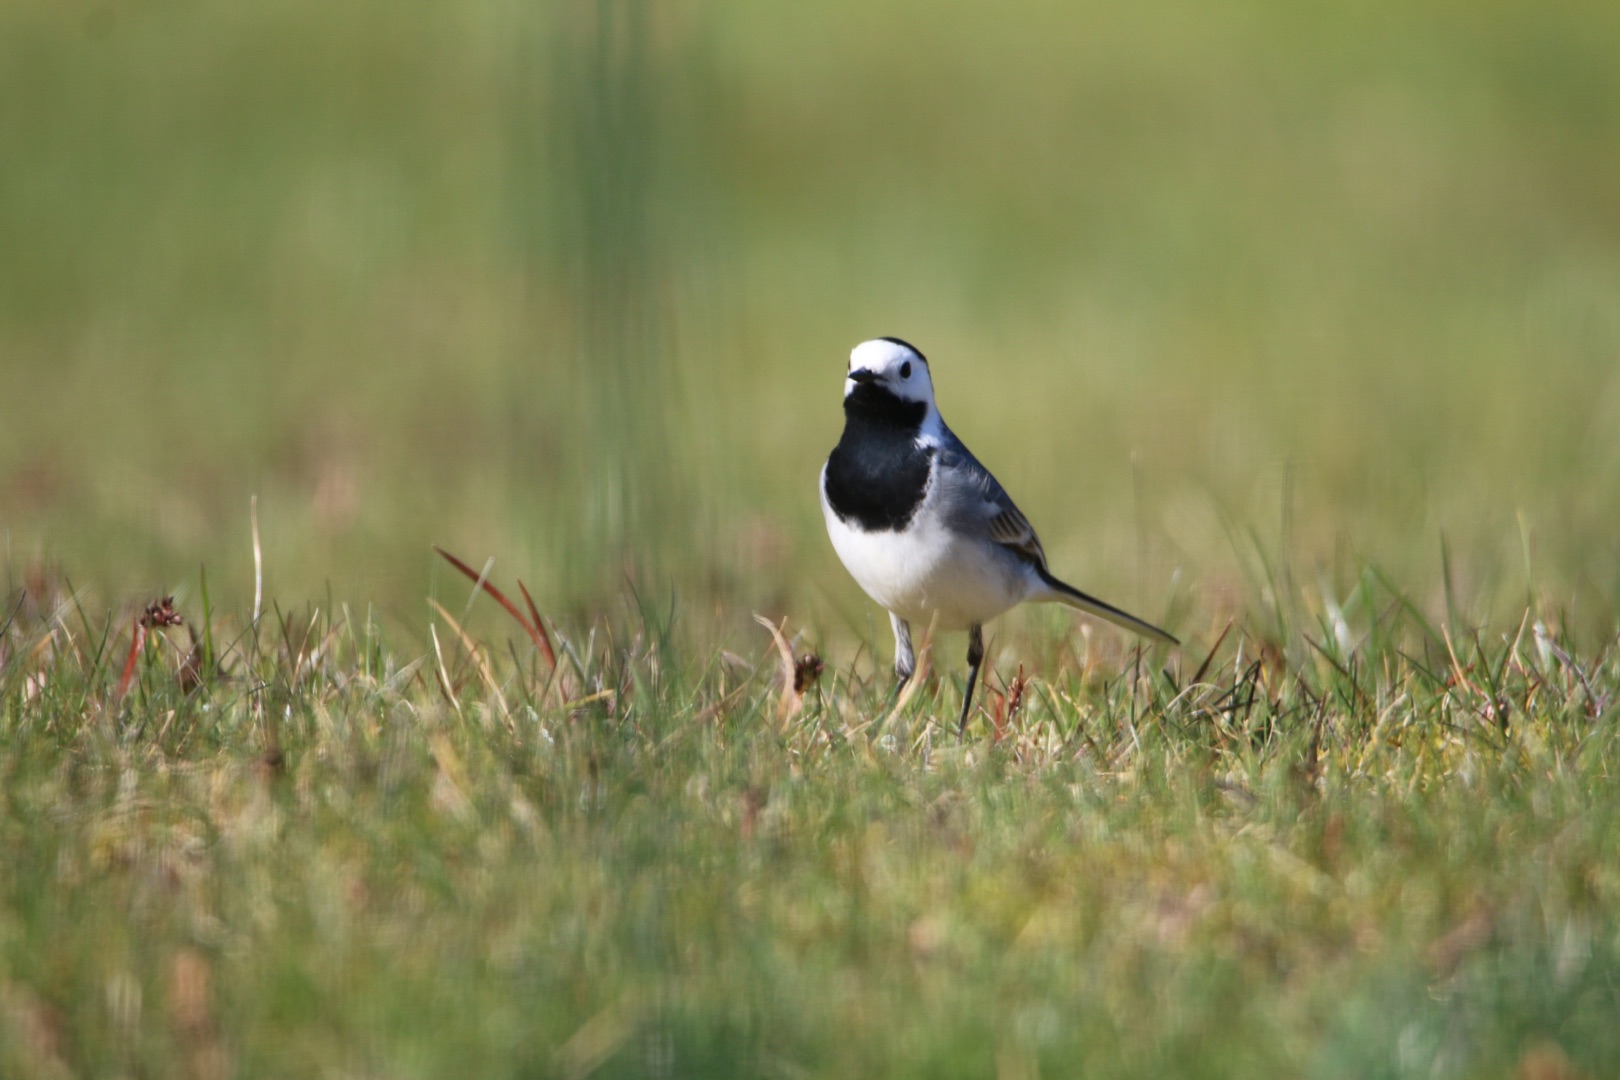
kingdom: Animalia
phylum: Chordata
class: Aves
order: Passeriformes
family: Motacillidae
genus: Motacilla
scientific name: Motacilla alba
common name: Hvid vipstjert
